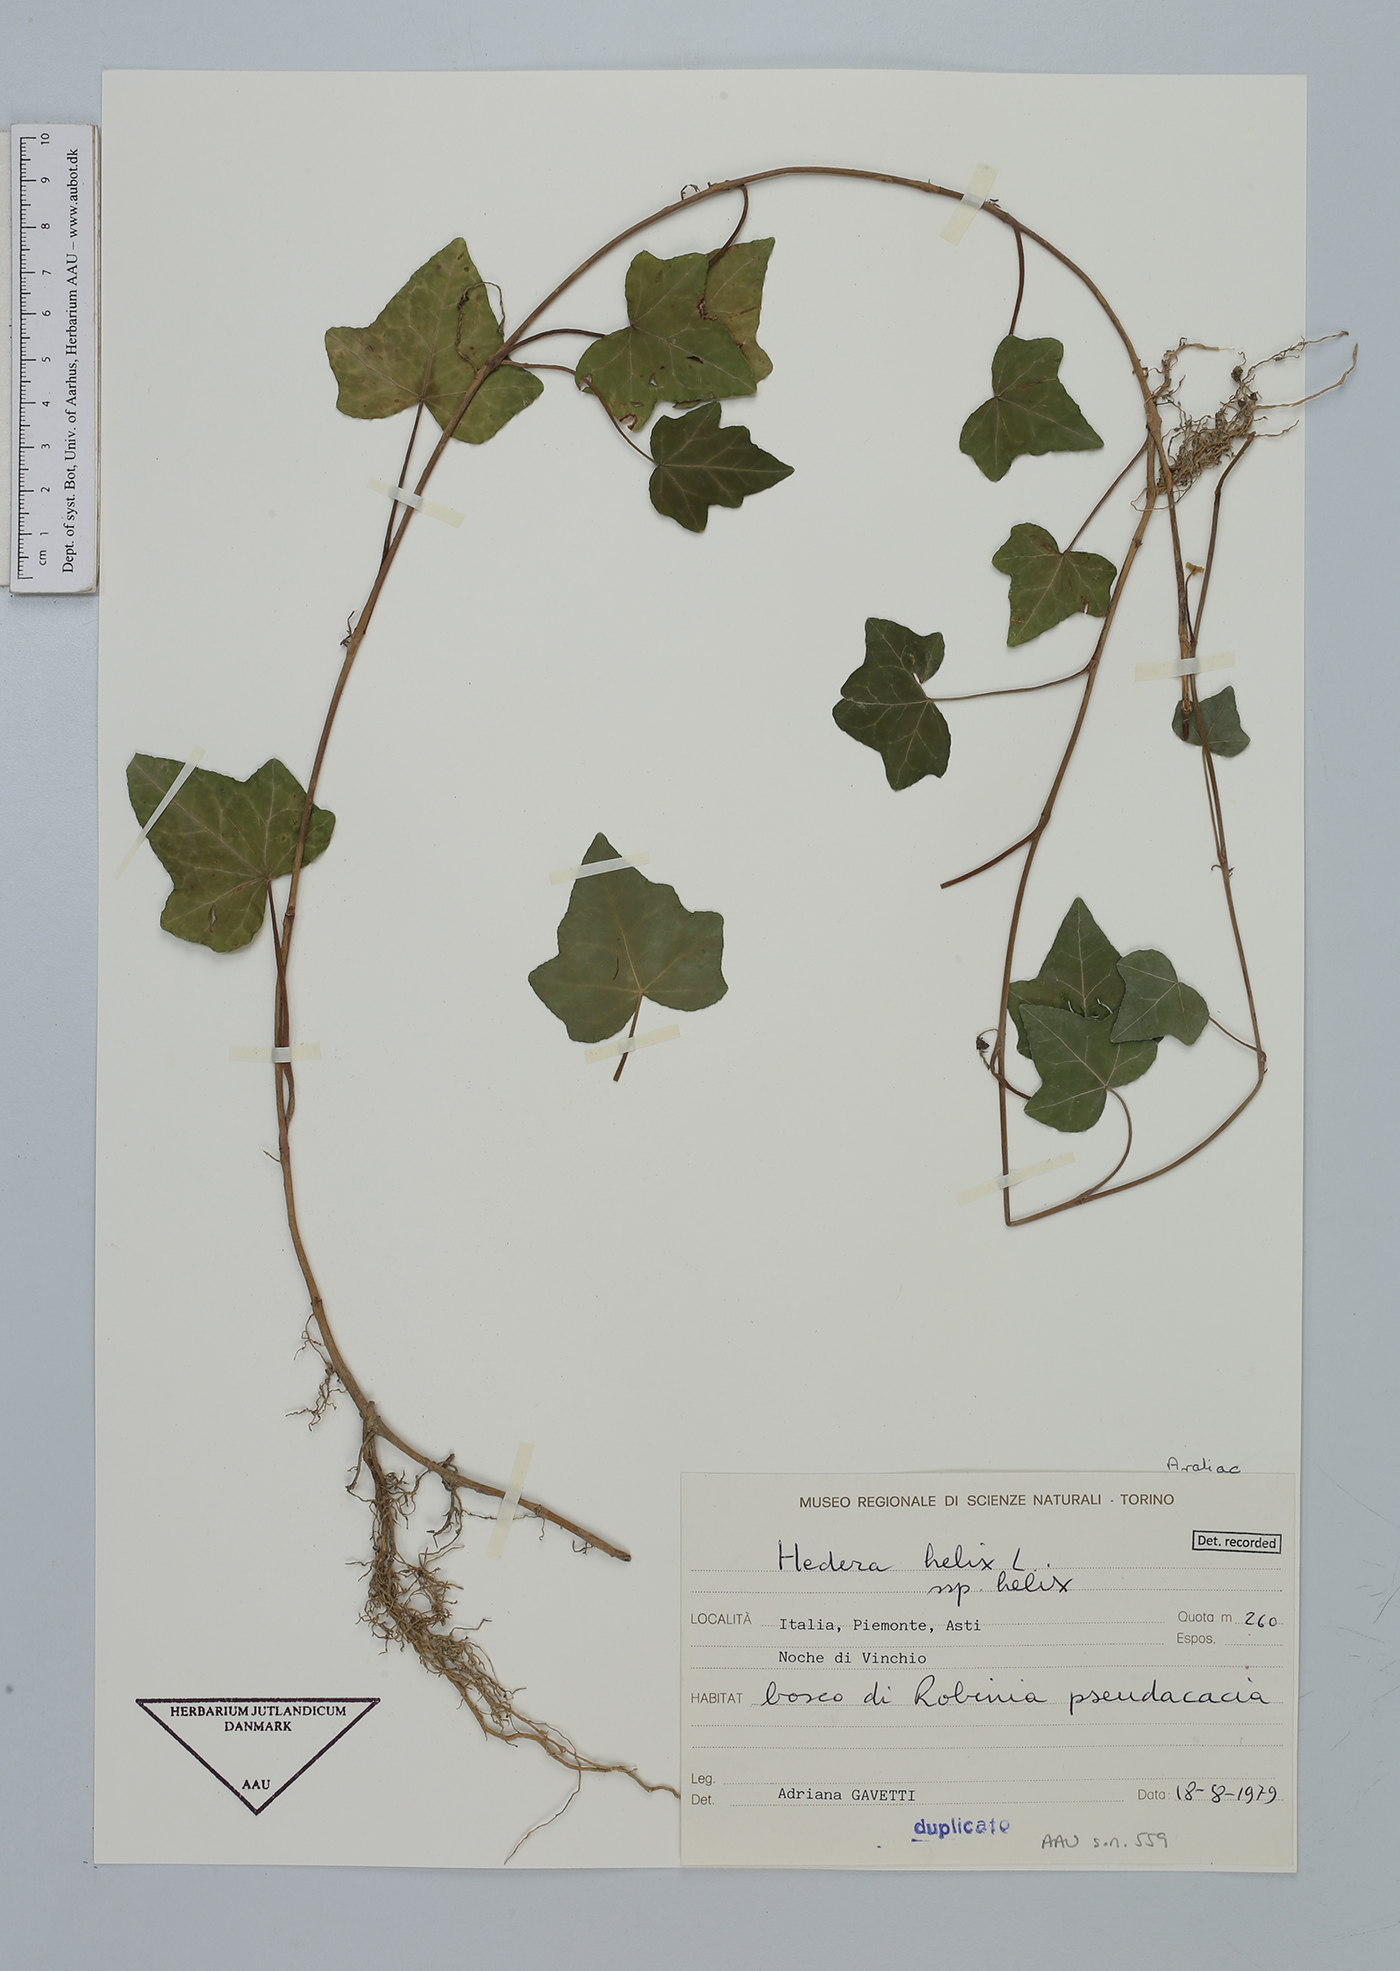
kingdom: Plantae
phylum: Tracheophyta
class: Magnoliopsida
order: Apiales
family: Araliaceae
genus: Hedera
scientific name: Hedera helix
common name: Ivy
